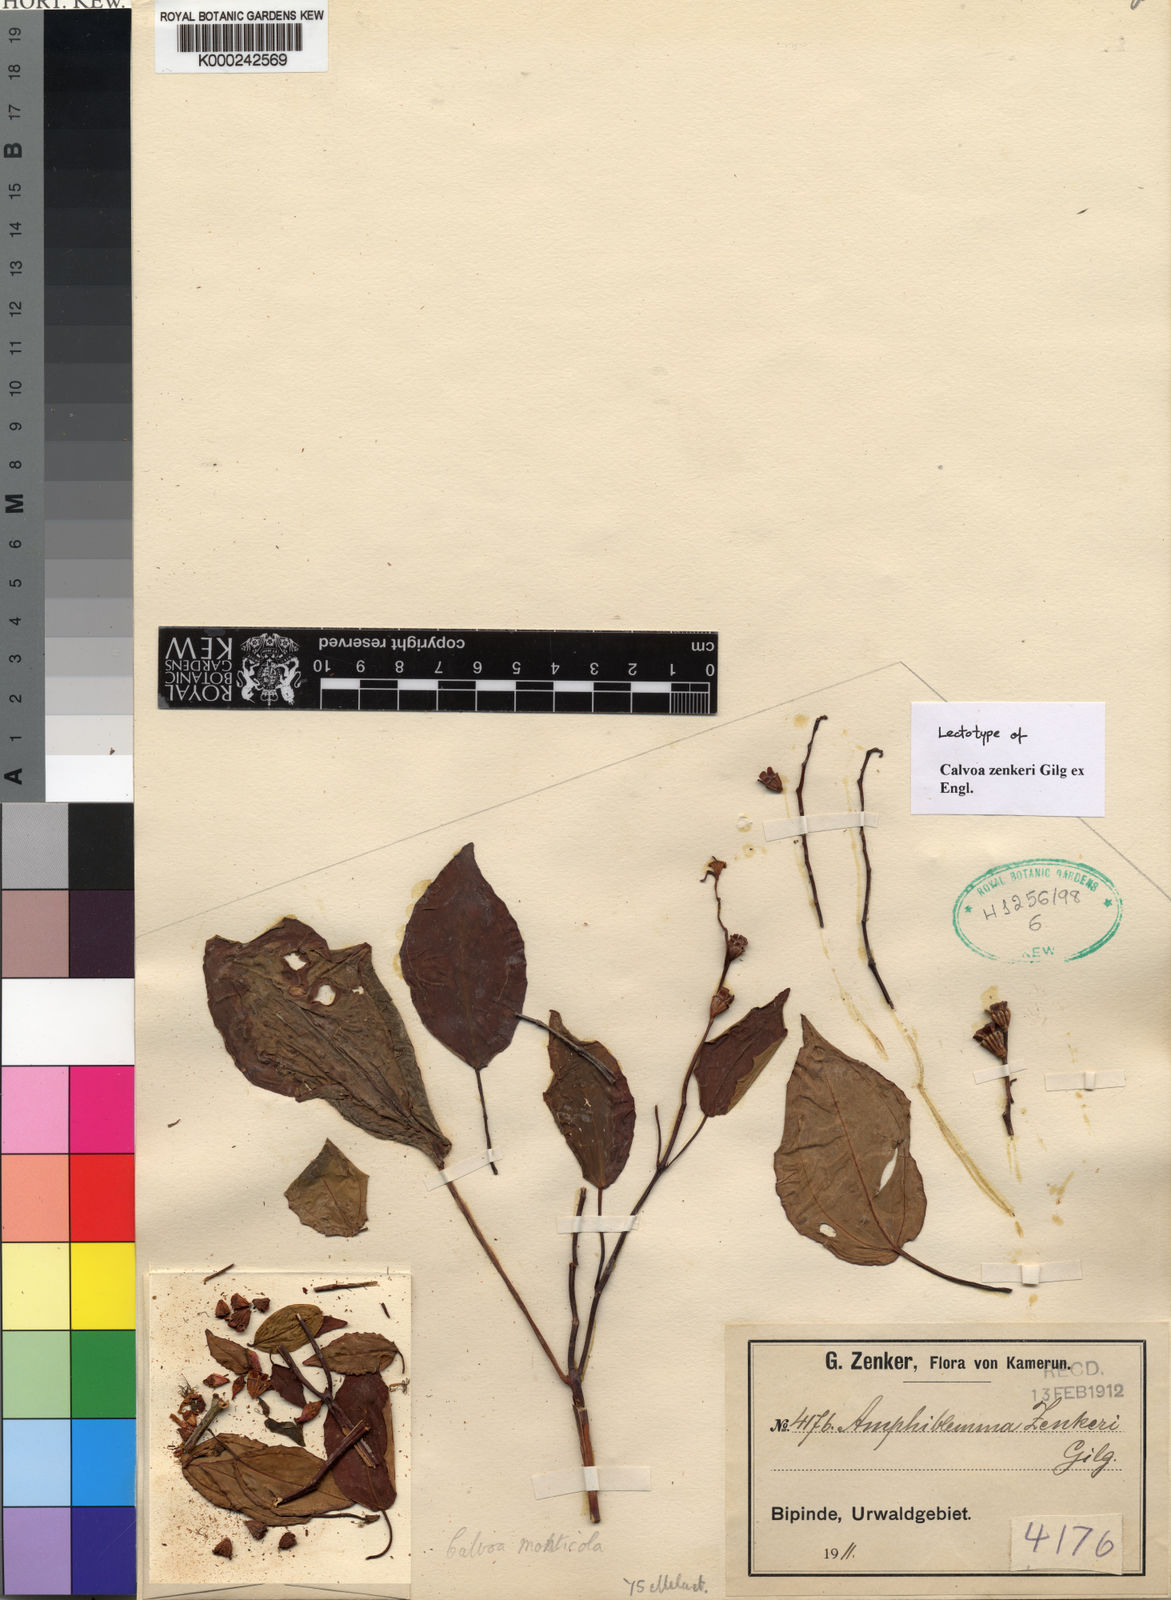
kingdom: Plantae
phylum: Tracheophyta
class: Magnoliopsida
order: Myrtales
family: Melastomataceae
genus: Calvoa
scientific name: Calvoa monticola
